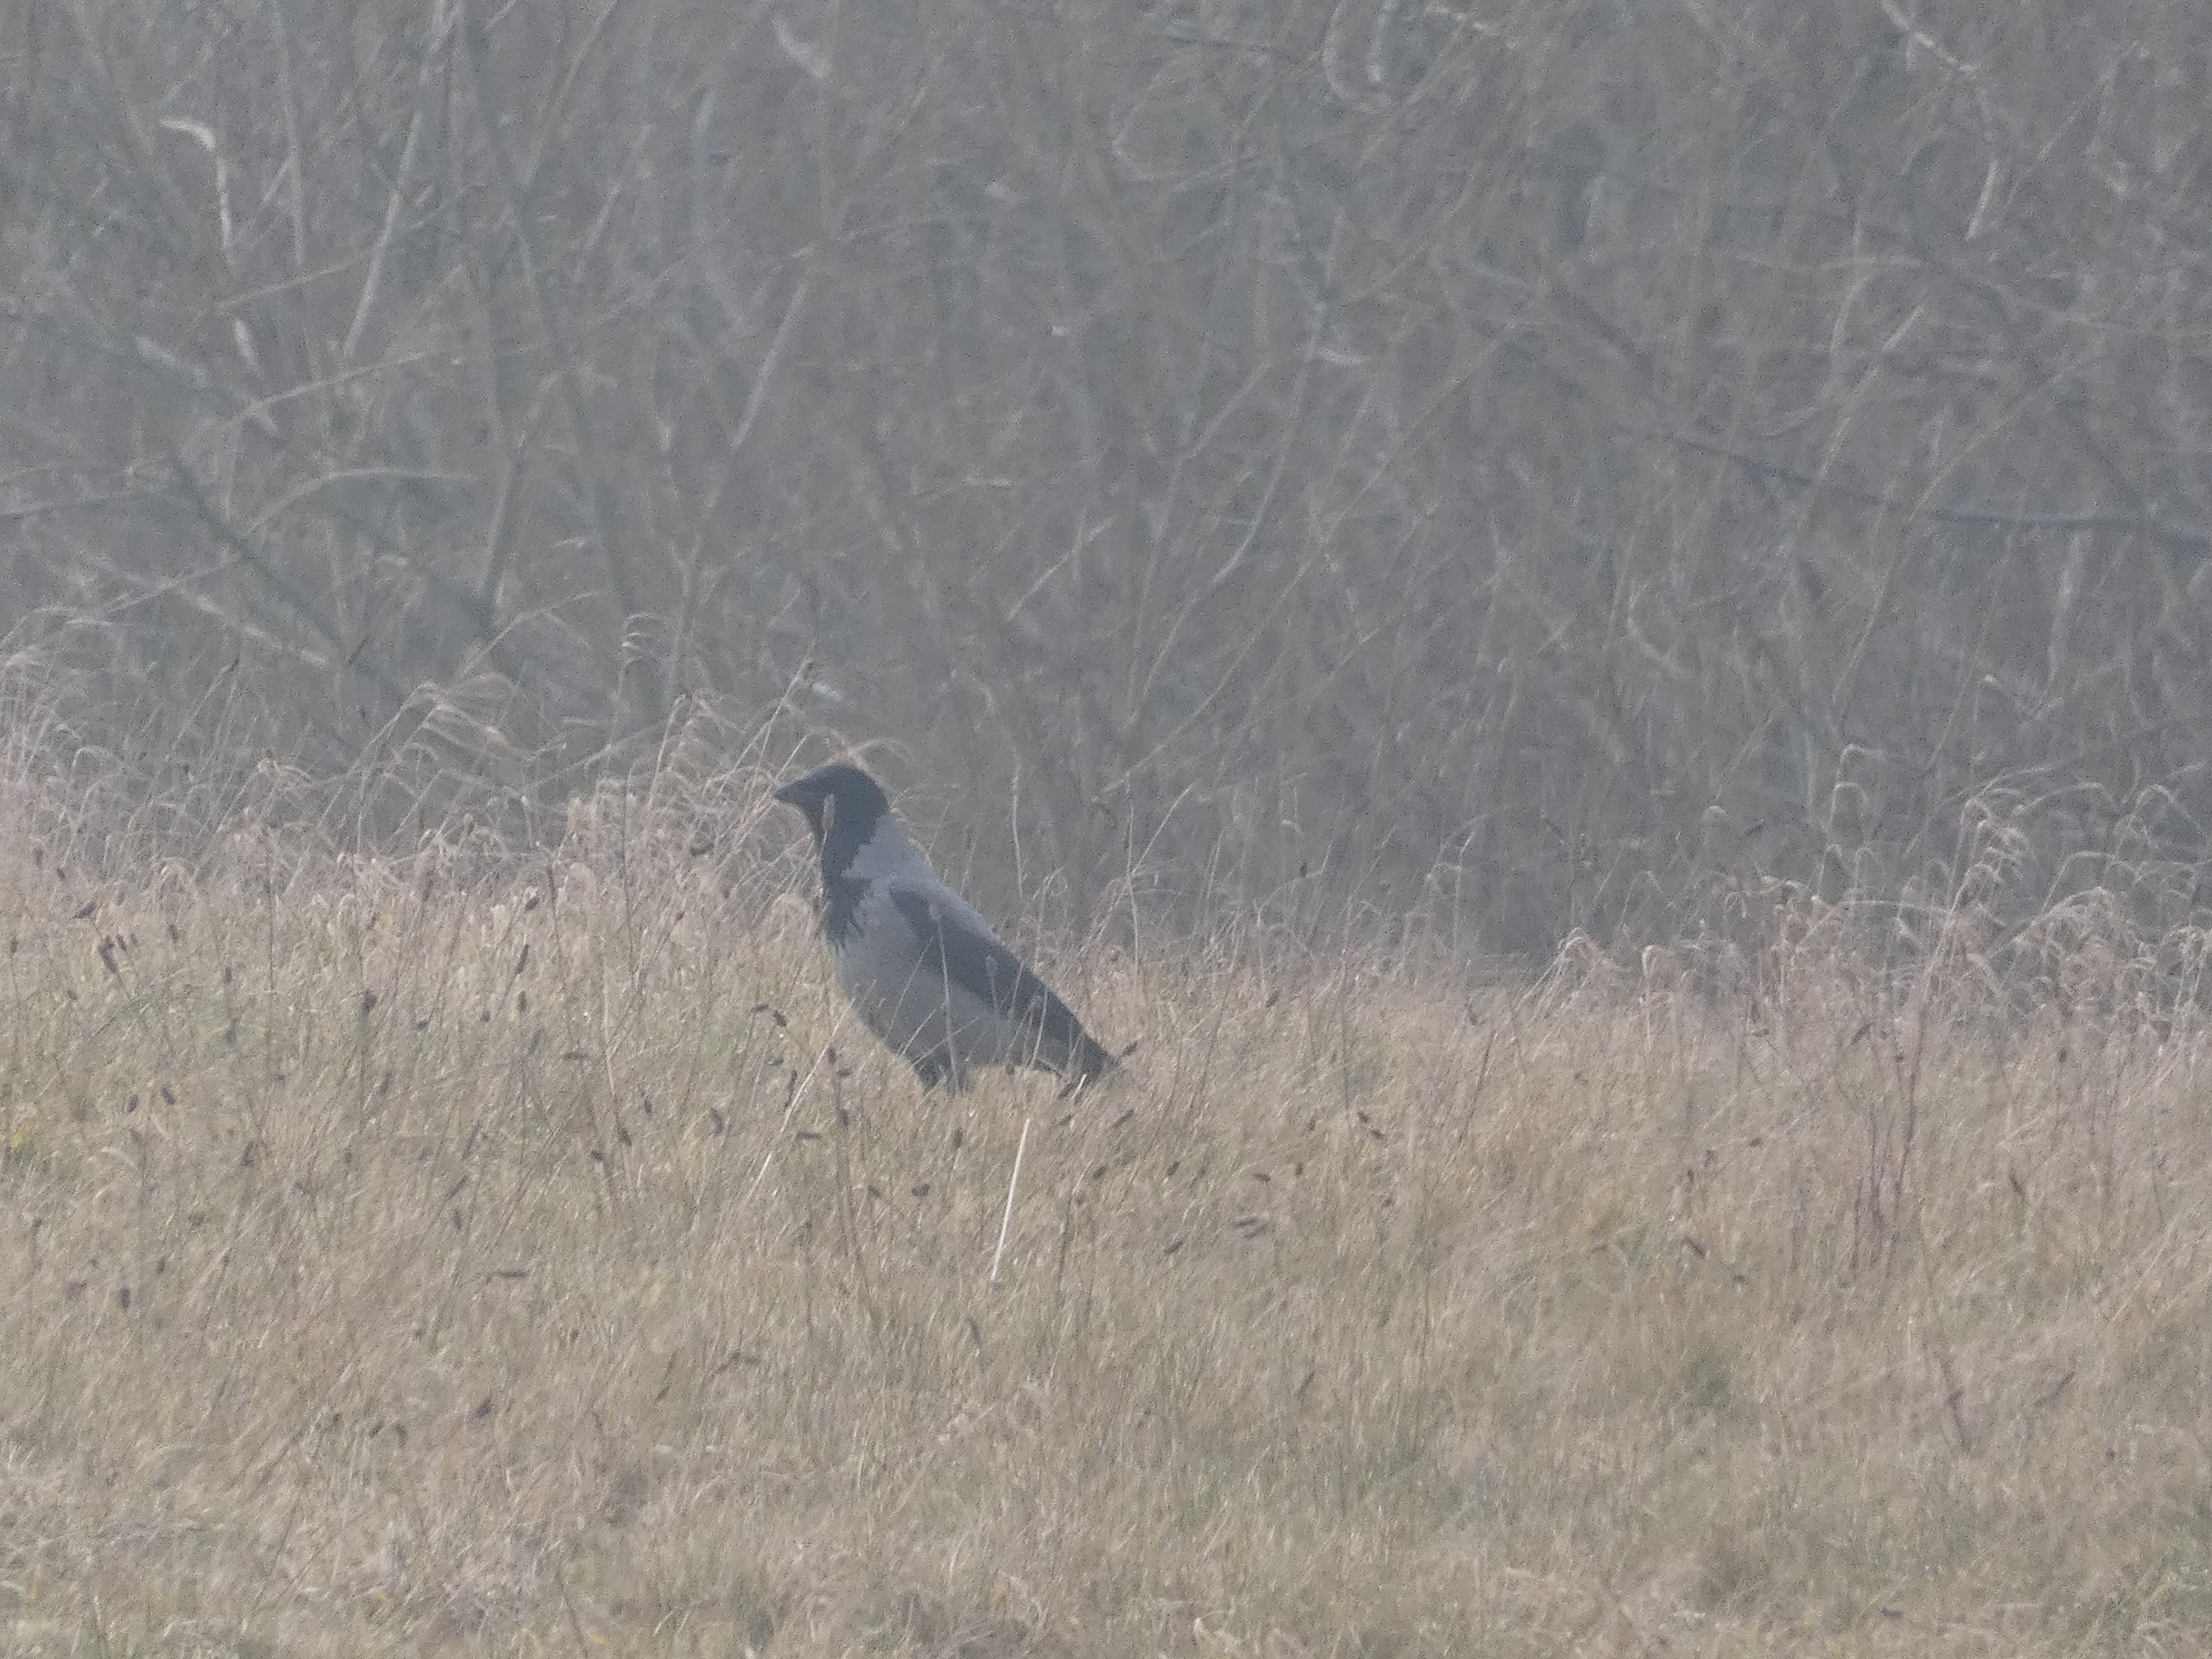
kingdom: Animalia
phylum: Chordata
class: Aves
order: Passeriformes
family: Corvidae
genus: Corvus
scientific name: Corvus cornix
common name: Gråkrage
